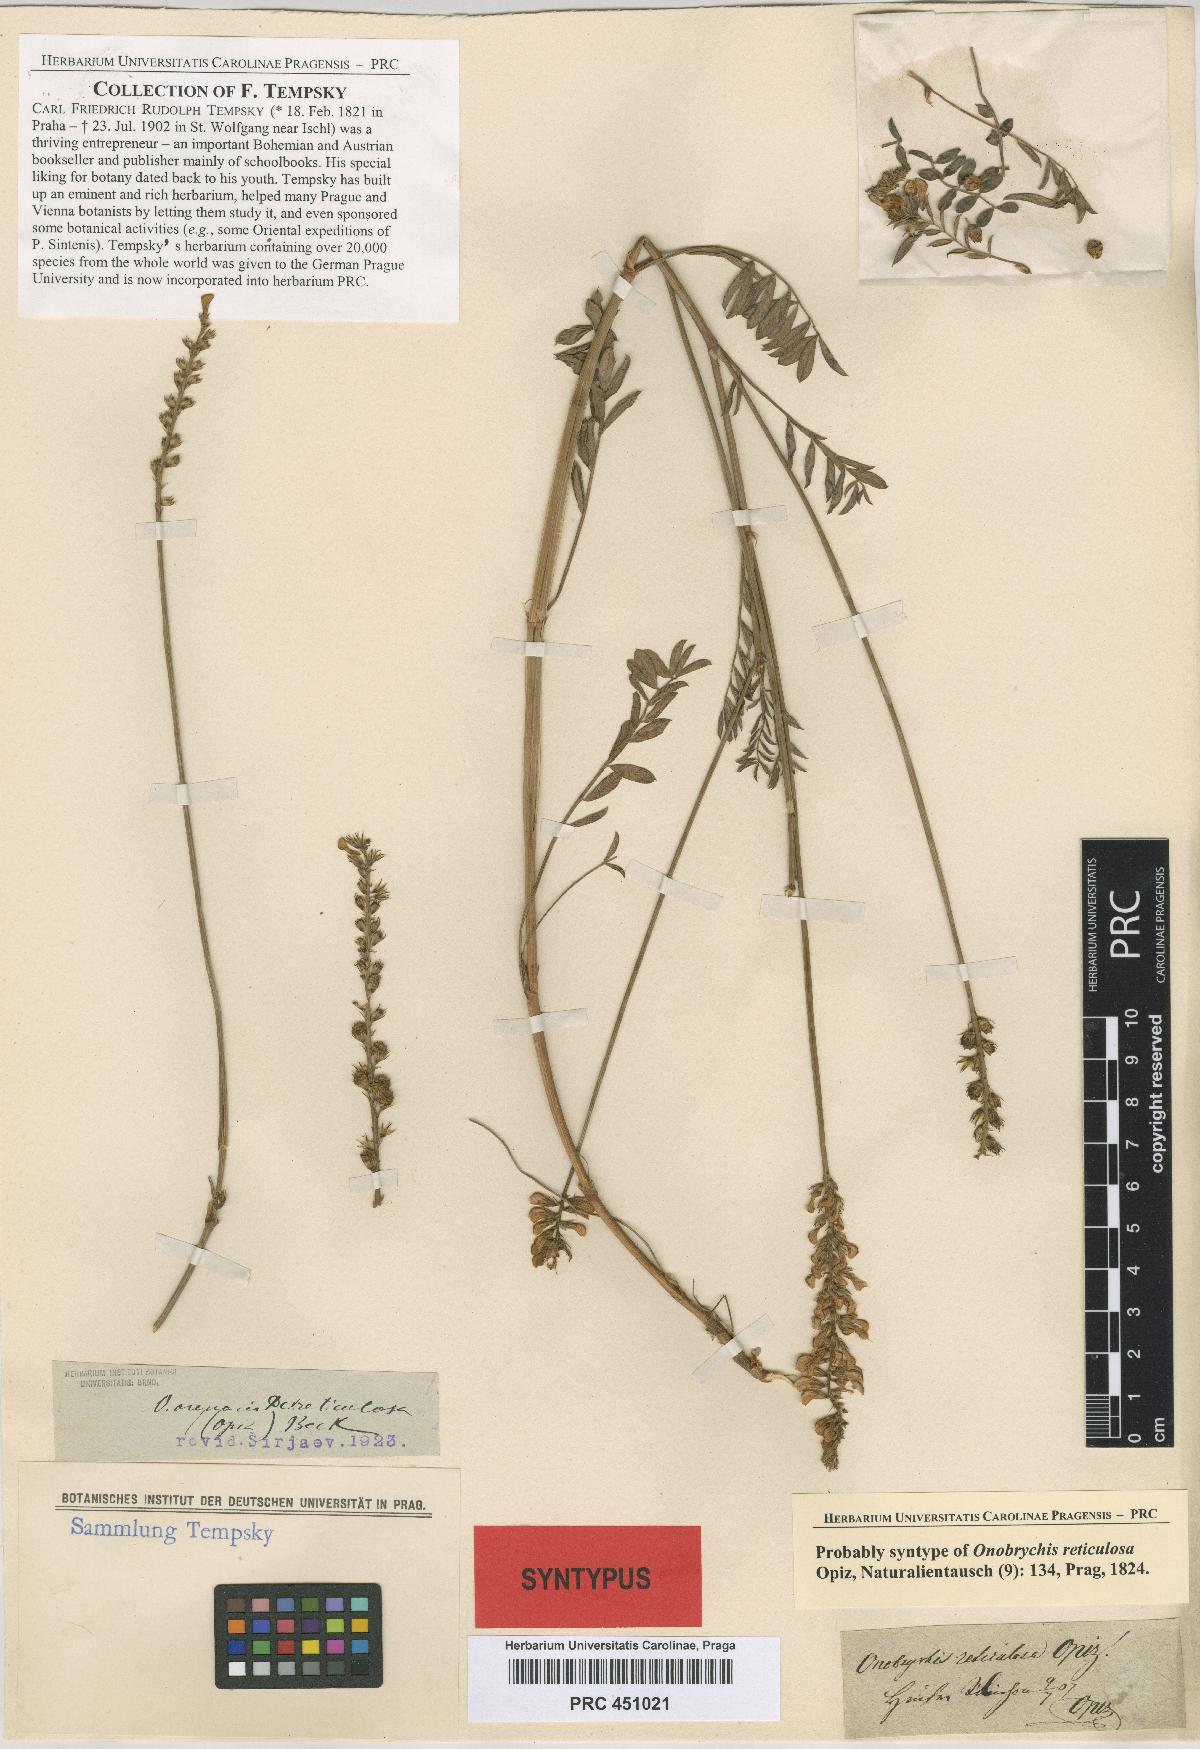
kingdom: Plantae
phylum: Tracheophyta
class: Magnoliopsida
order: Fabales
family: Fabaceae
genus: Onobrychis
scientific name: Onobrychis arenaria
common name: Sand esparcet
